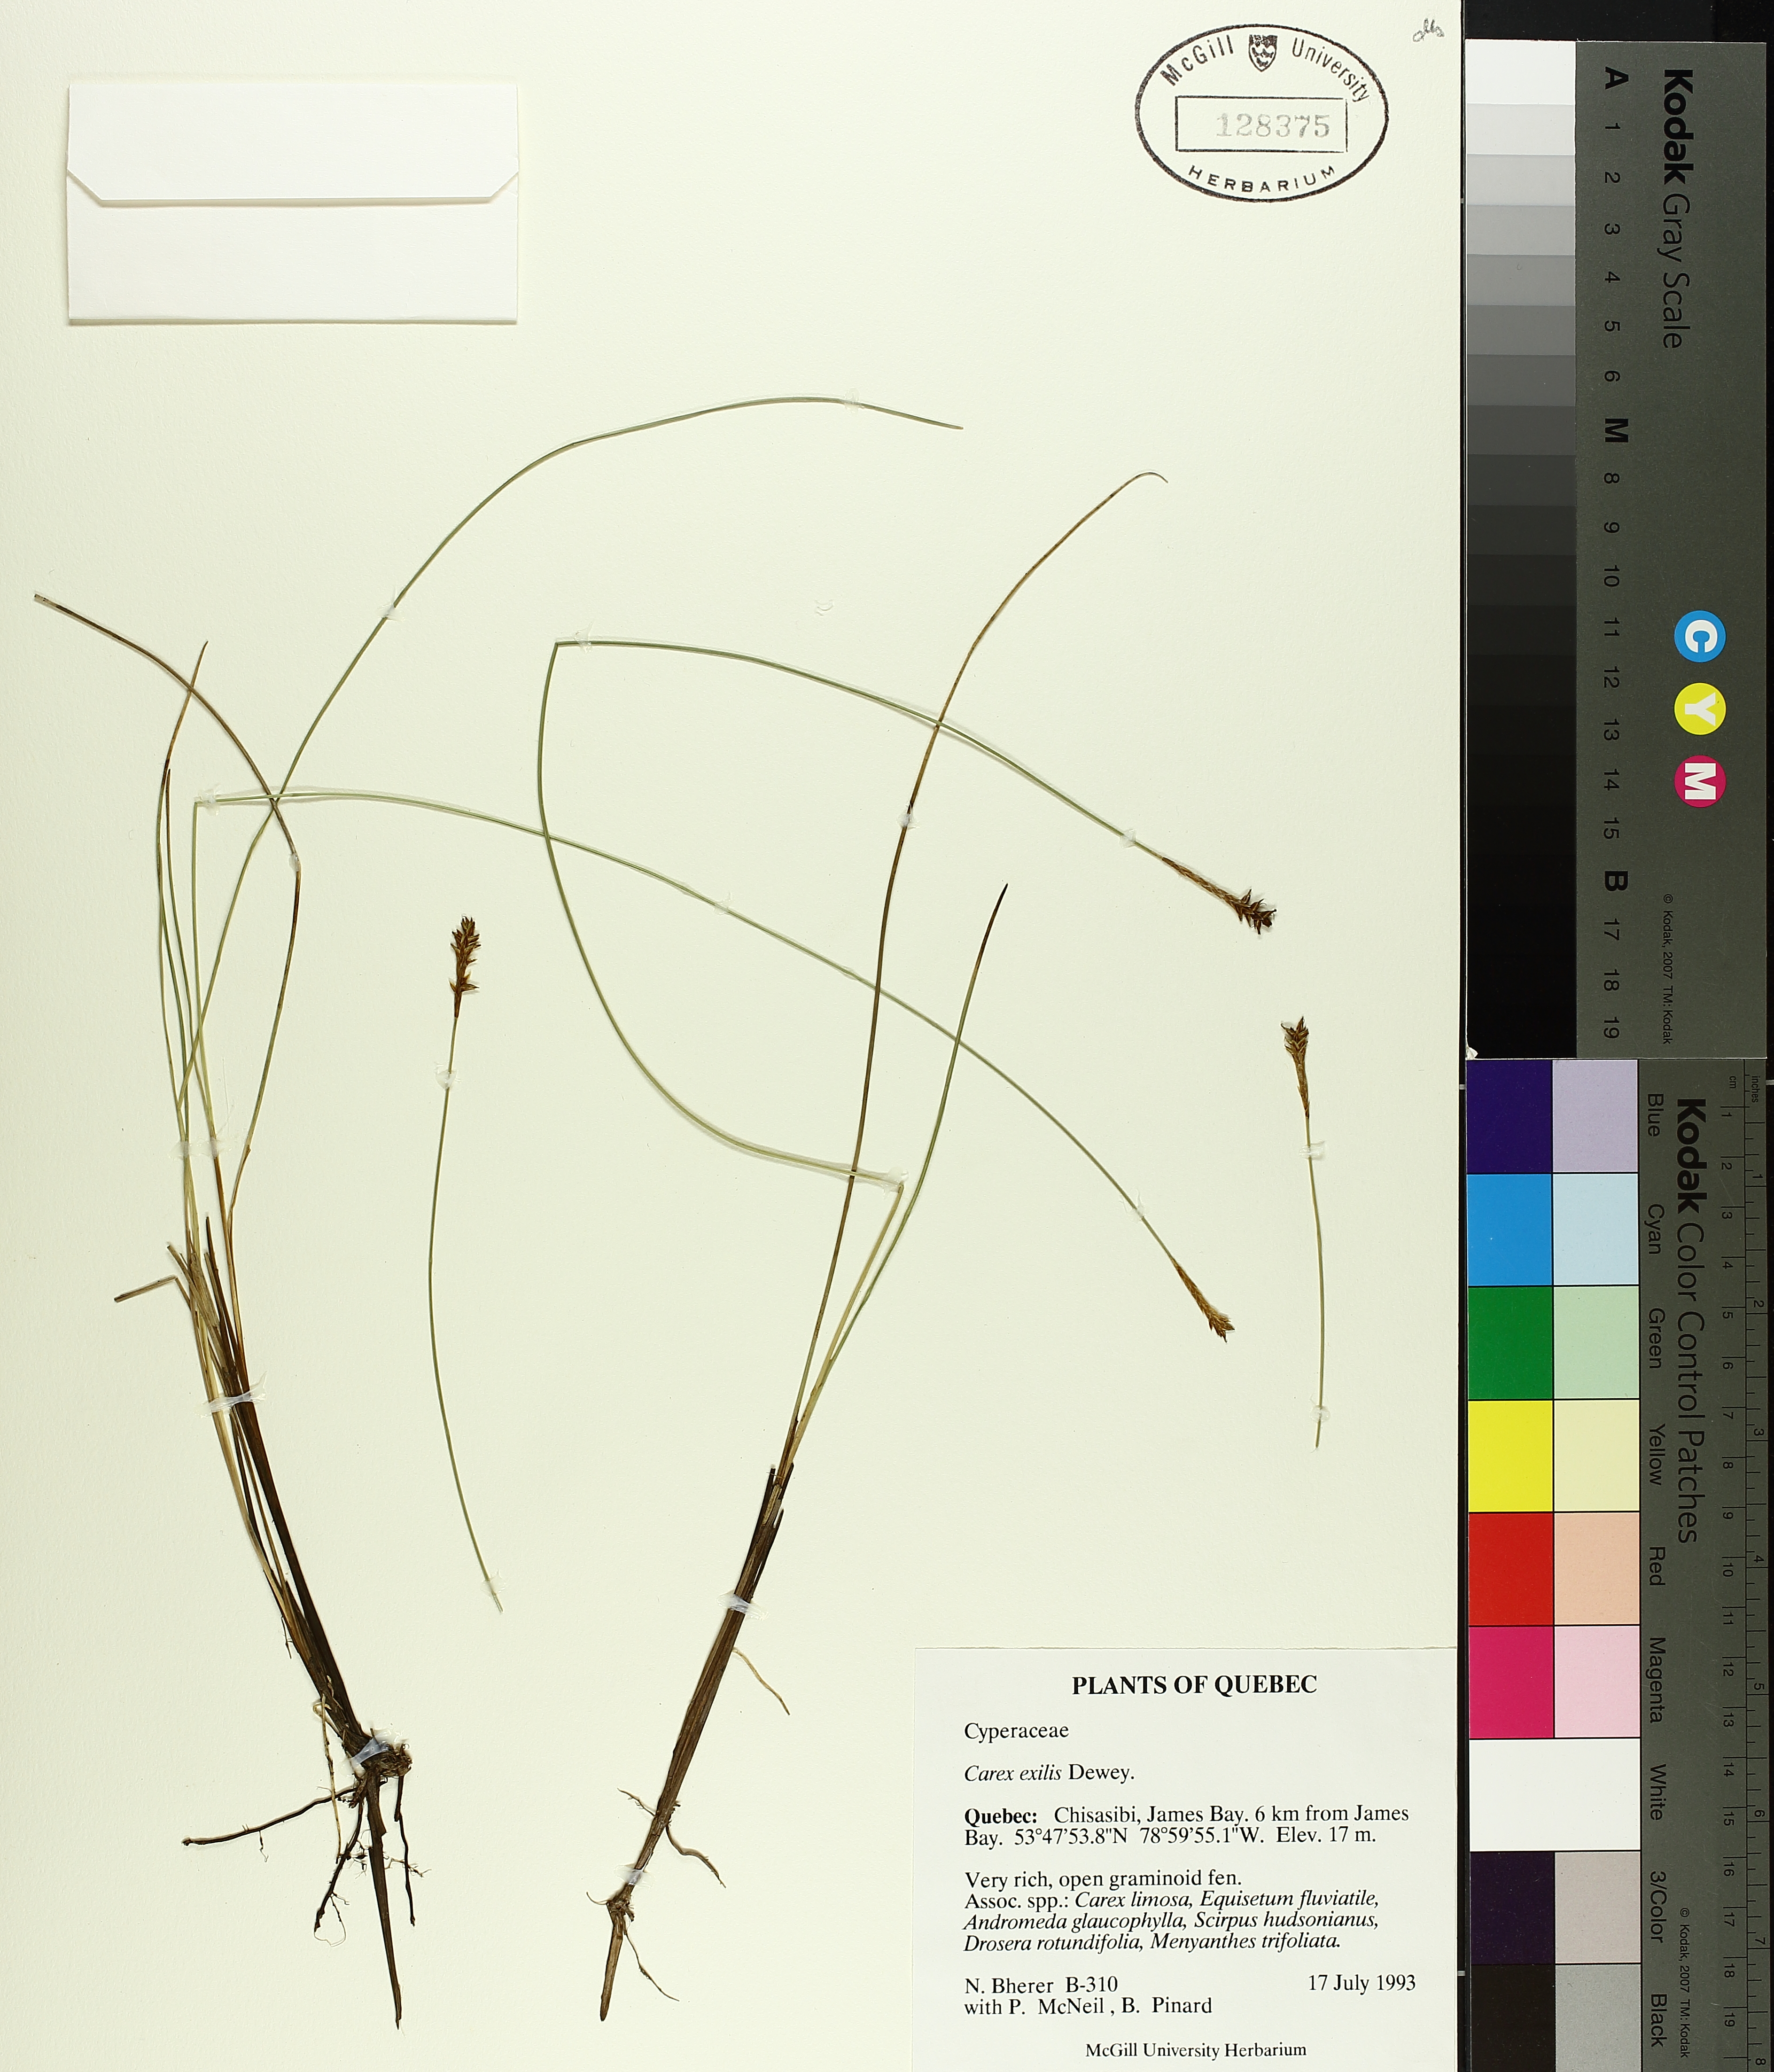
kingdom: Plantae
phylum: Tracheophyta
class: Liliopsida
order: Poales
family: Cyperaceae
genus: Carex
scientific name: Carex exilis
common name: Coastal sedge
